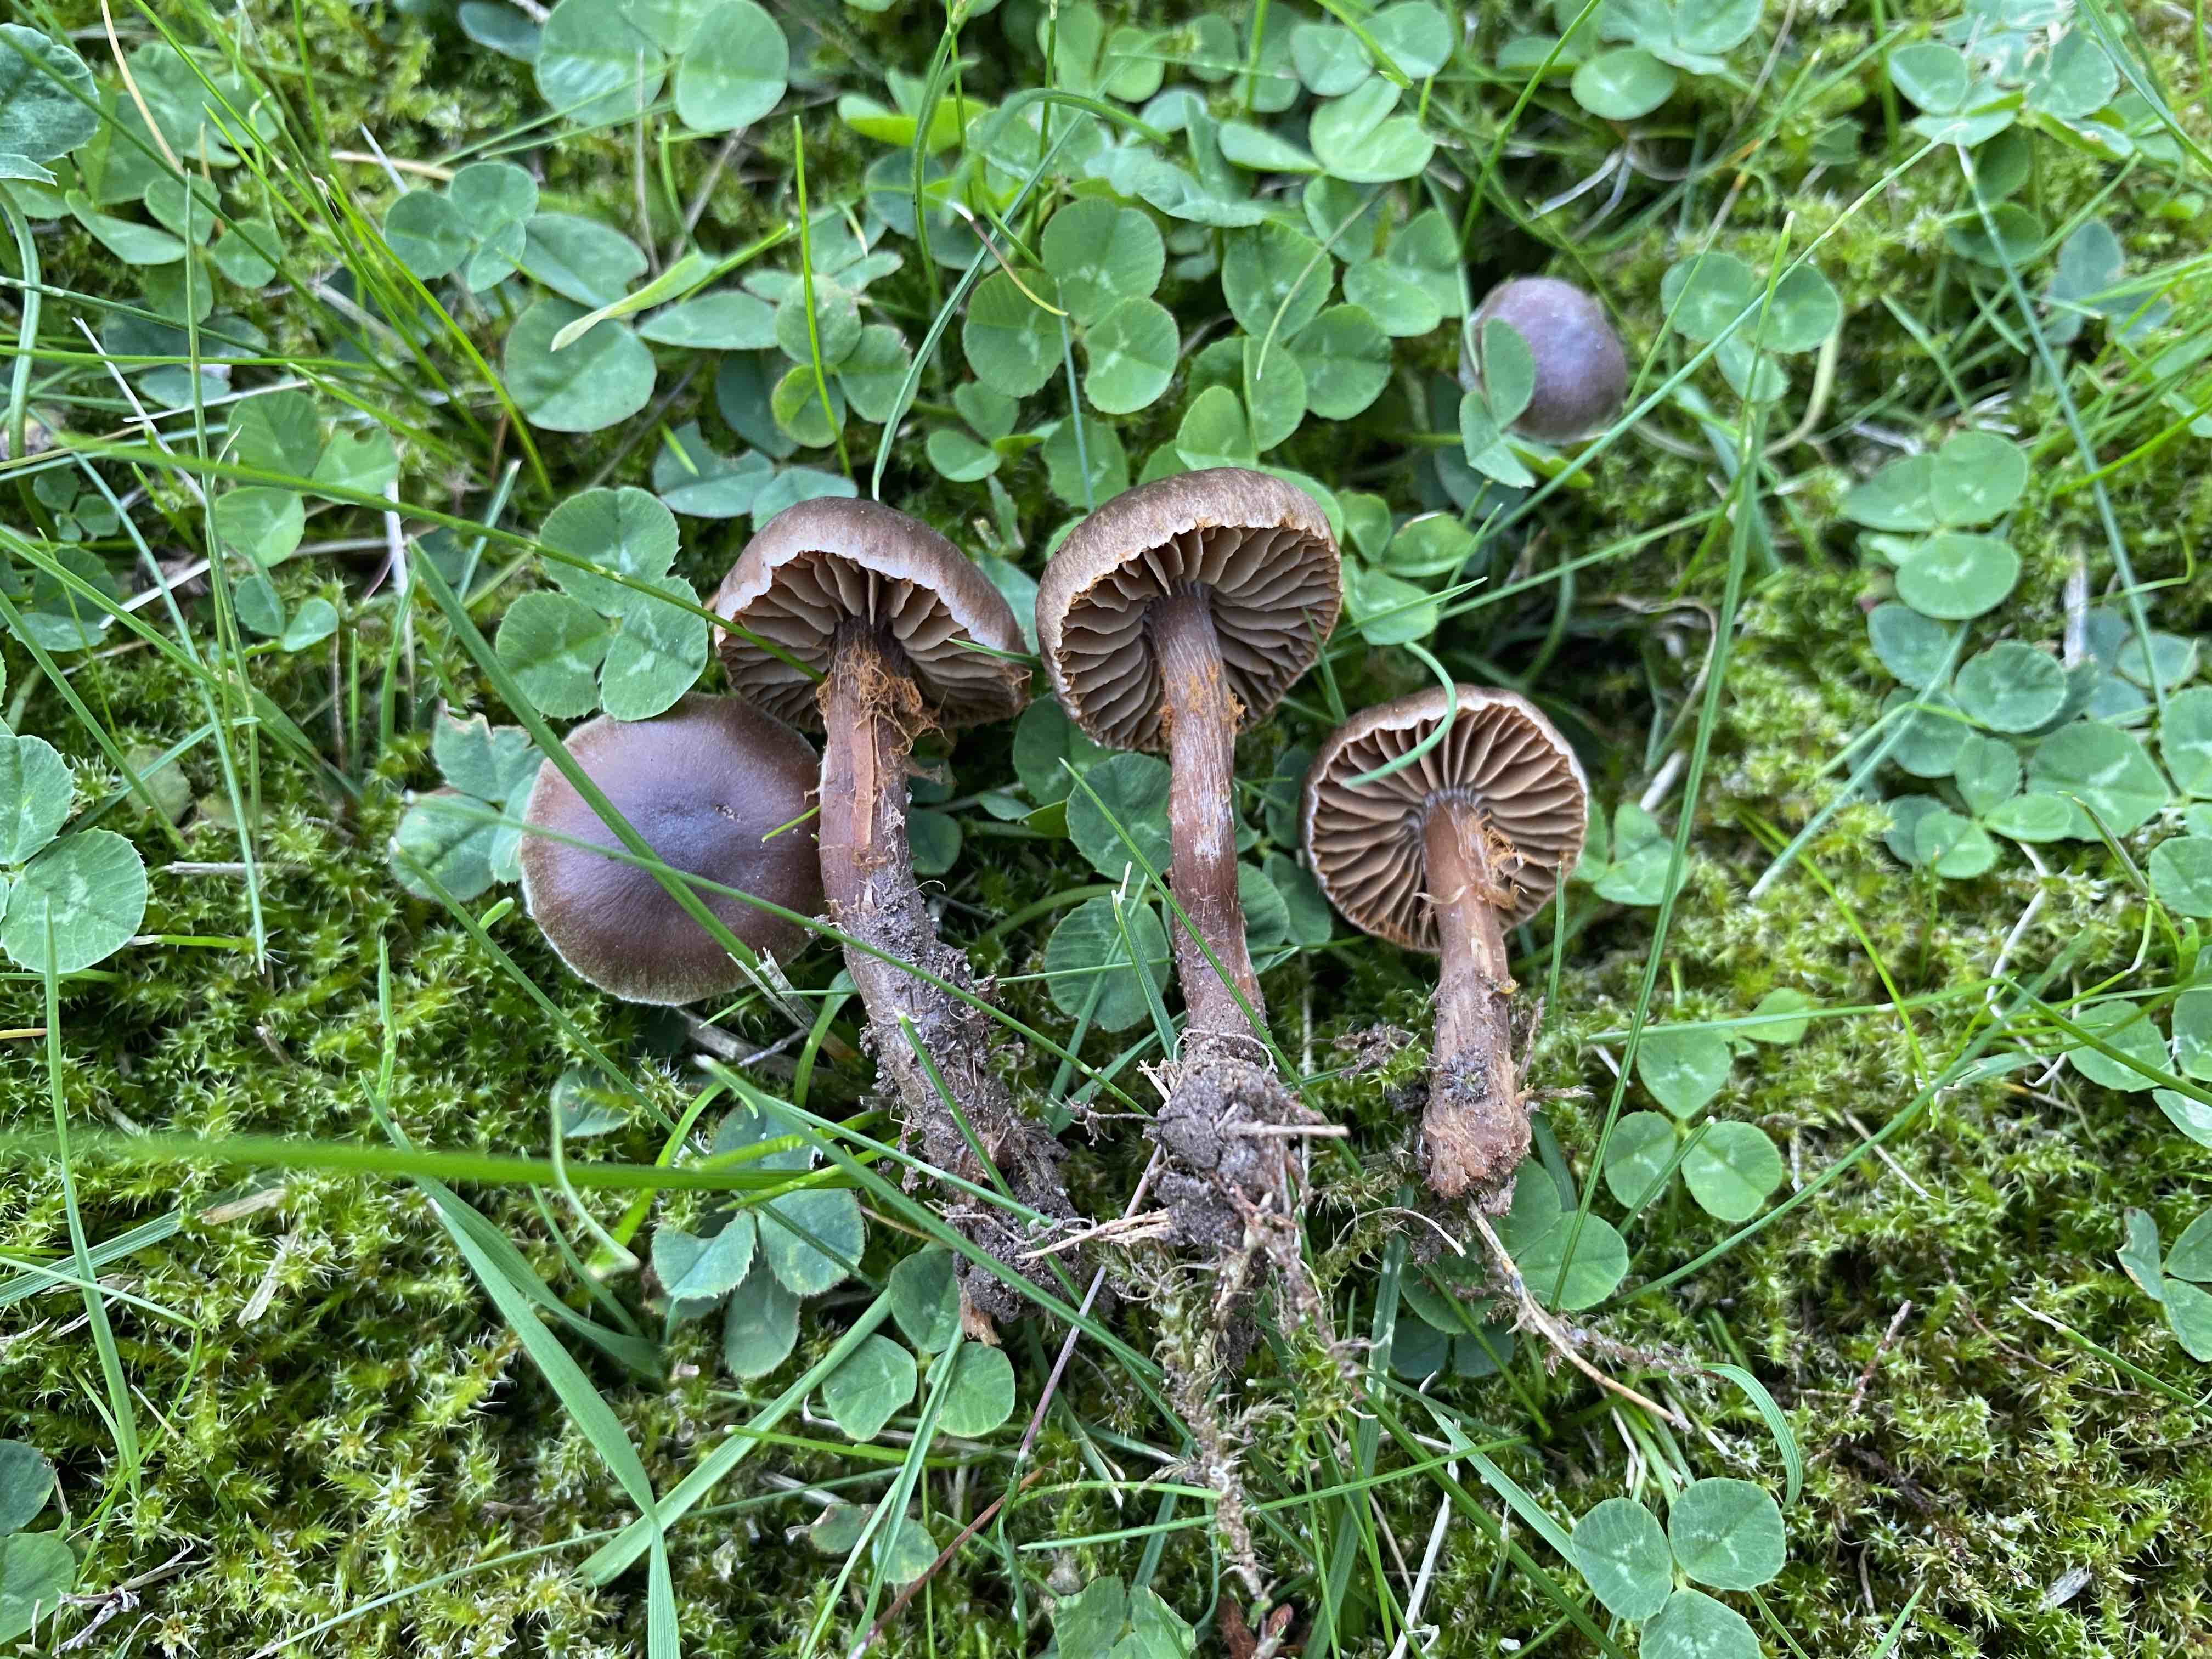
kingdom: Fungi
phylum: Basidiomycota
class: Agaricomycetes
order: Agaricales
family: Cortinariaceae
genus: Cortinarius
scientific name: Cortinarius
